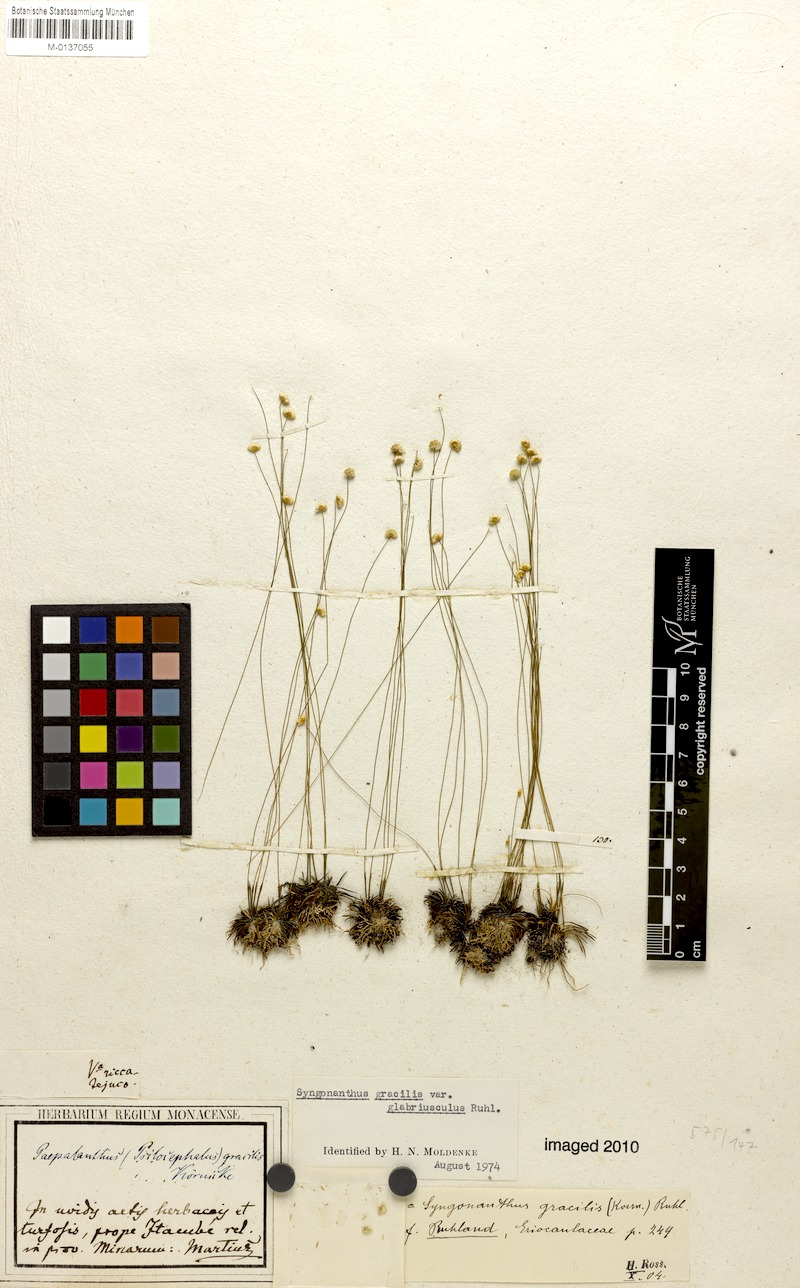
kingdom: Plantae
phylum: Tracheophyta
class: Liliopsida
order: Poales
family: Eriocaulaceae
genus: Syngonanthus
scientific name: Syngonanthus gracilis
